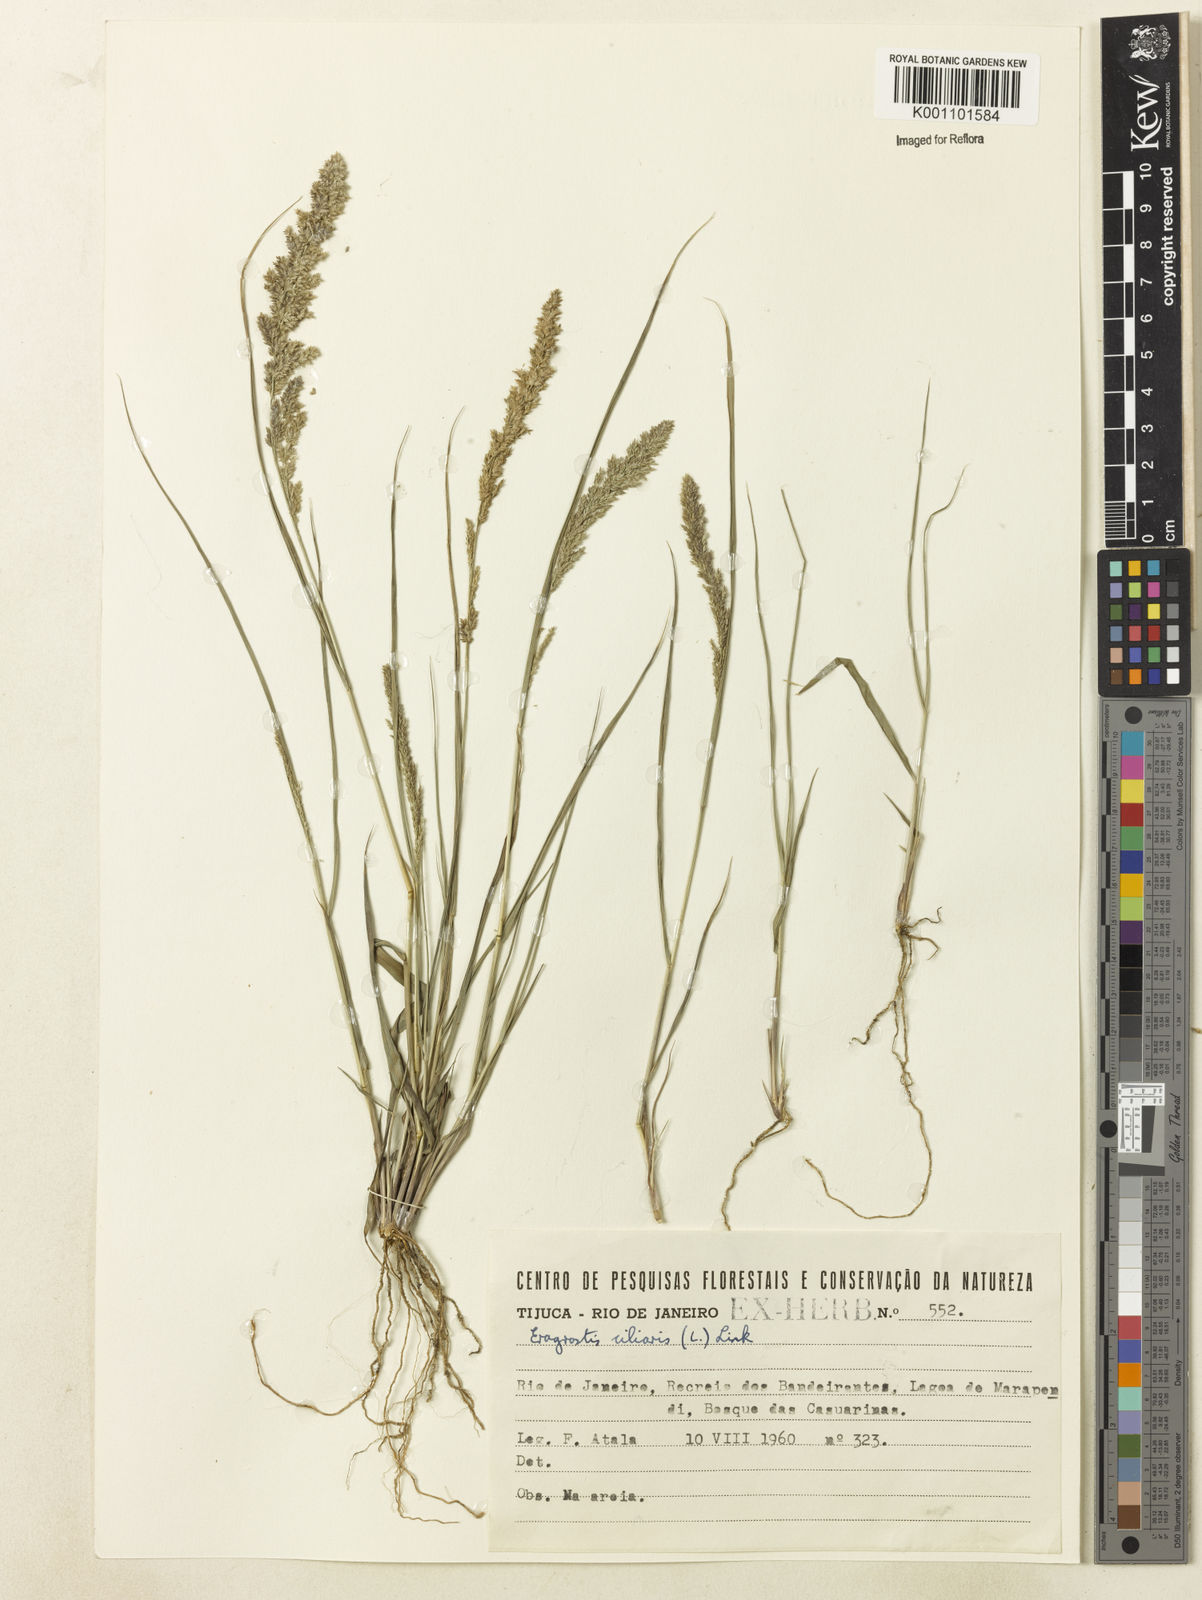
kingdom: Plantae
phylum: Tracheophyta
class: Liliopsida
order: Poales
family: Poaceae
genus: Eragrostis
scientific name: Eragrostis ciliaris
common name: Gophertail lovegrass
